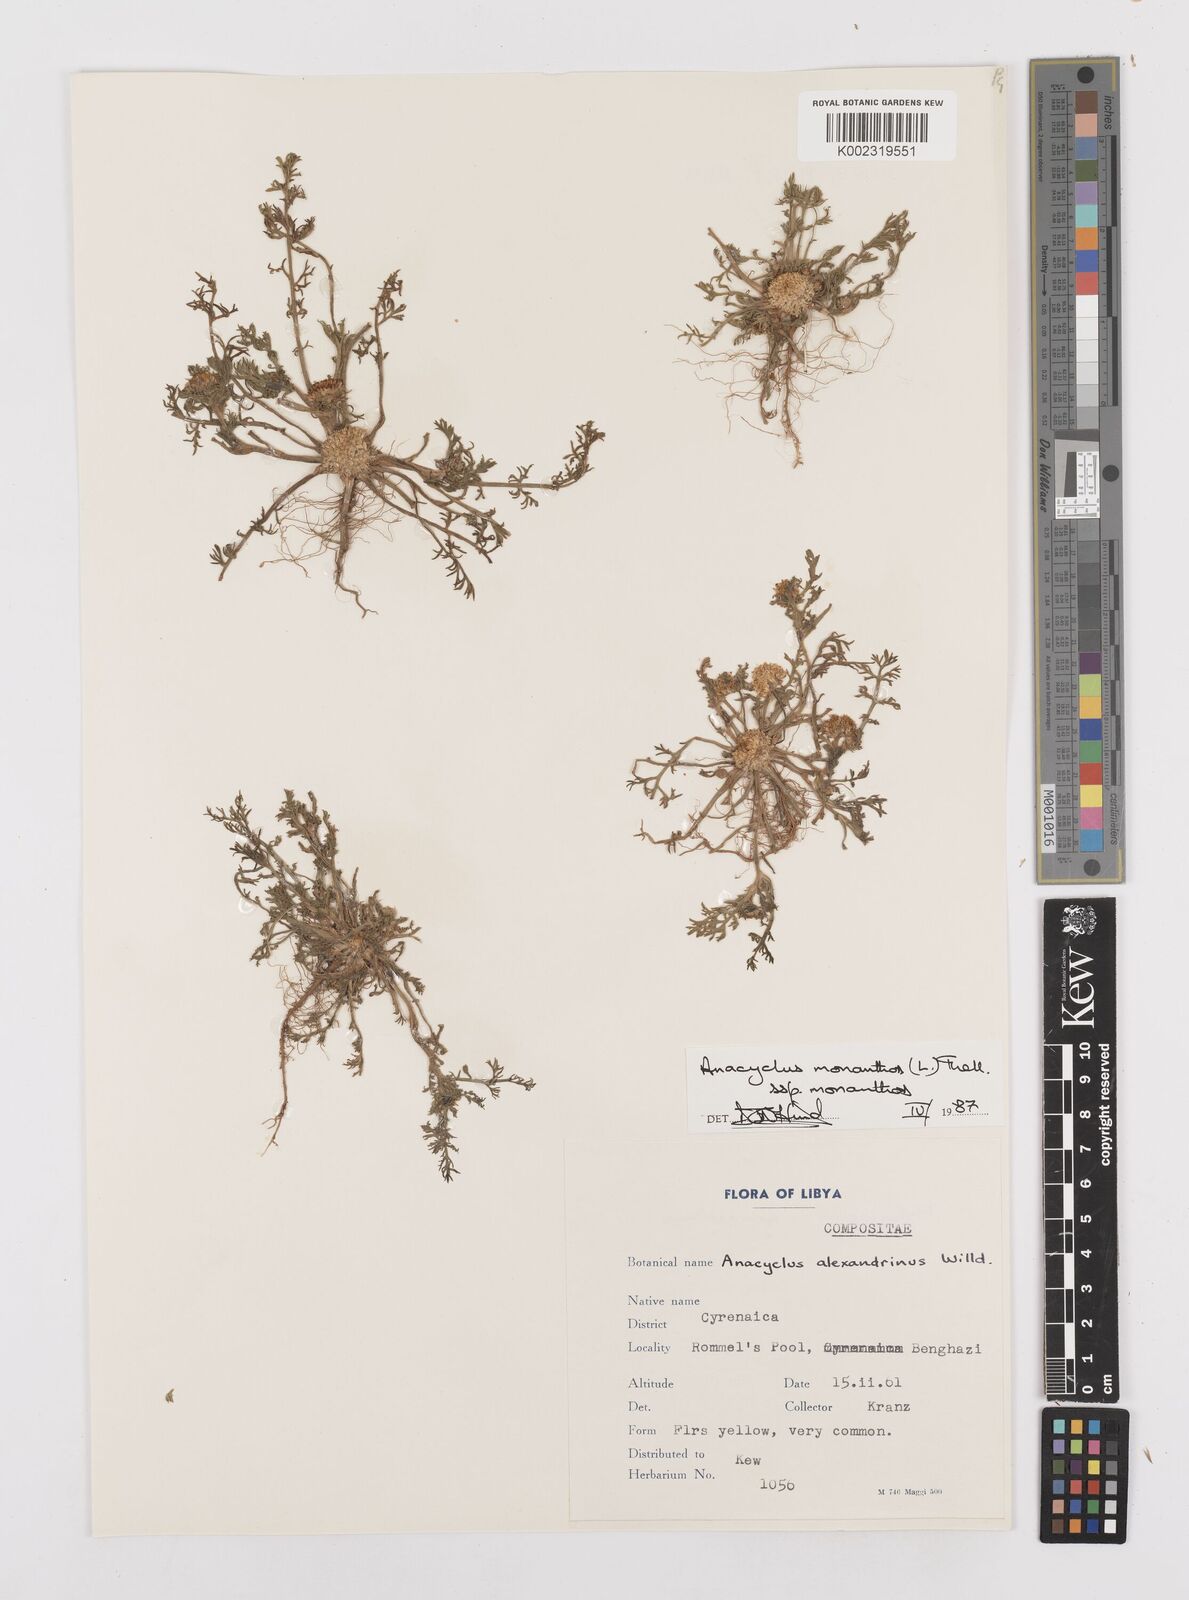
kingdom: Plantae
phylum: Tracheophyta
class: Magnoliopsida
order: Asterales
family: Asteraceae
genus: Anacyclus
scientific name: Anacyclus monanthos
